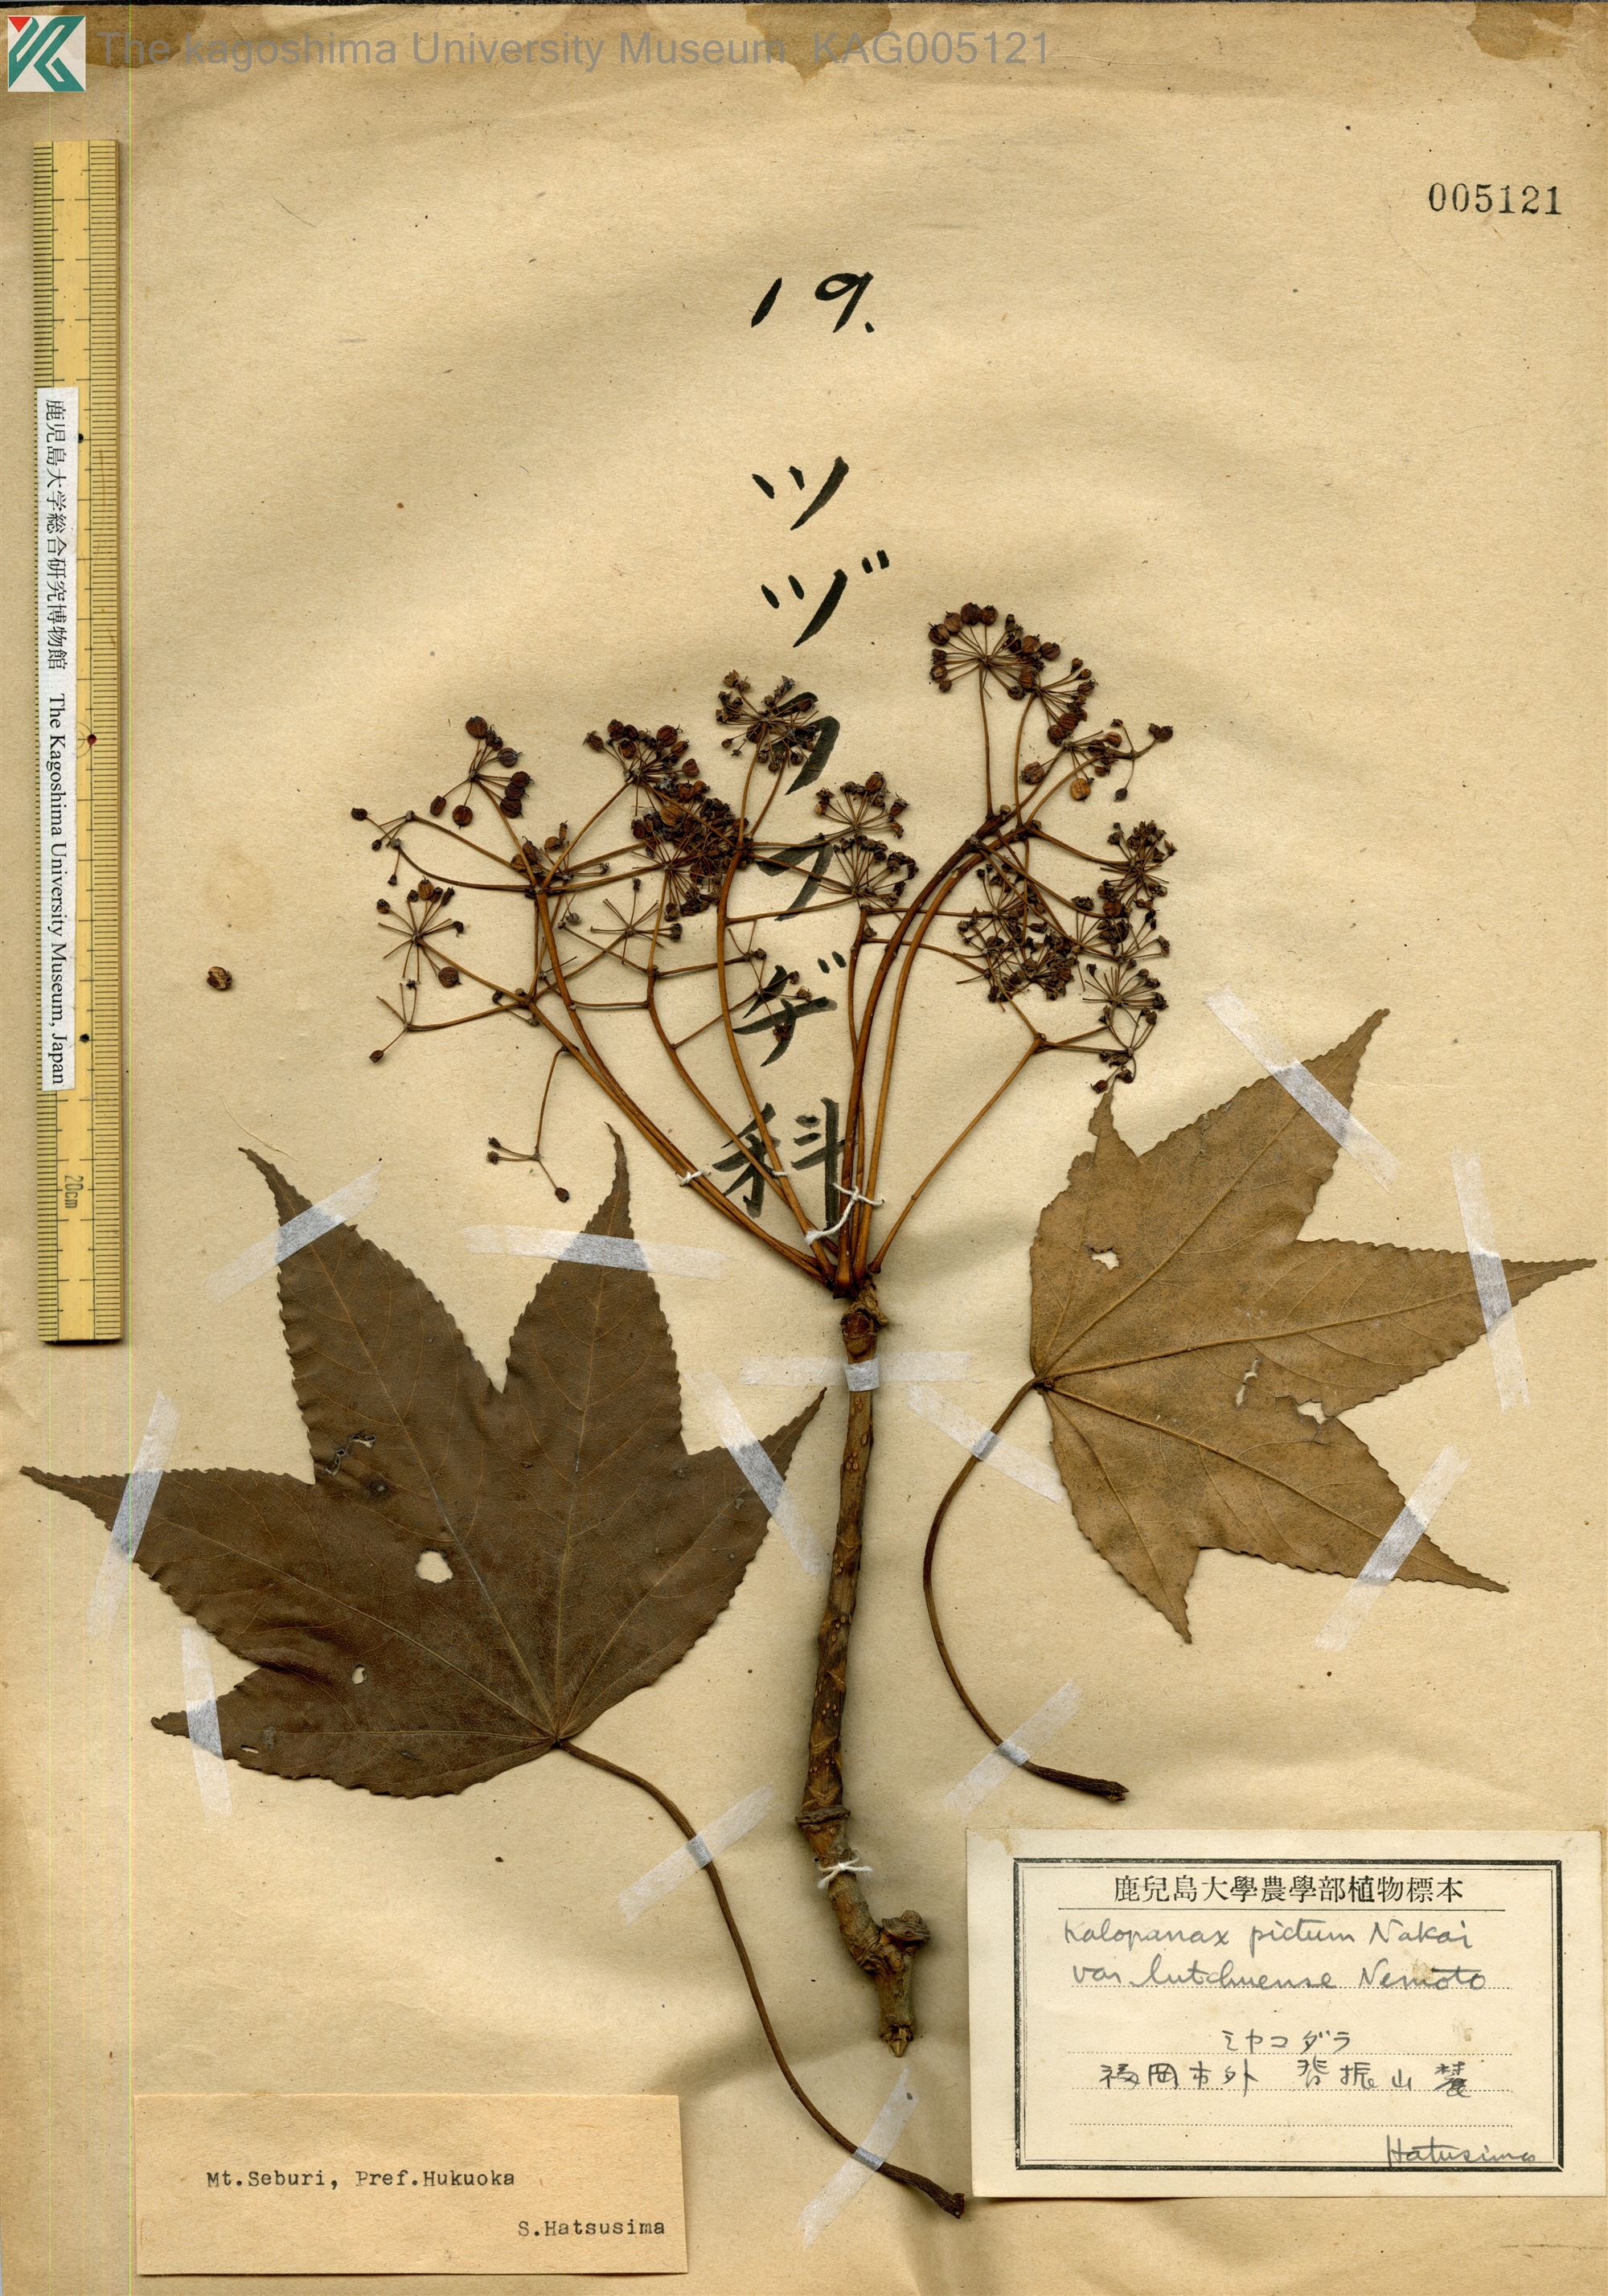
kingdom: Plantae
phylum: Tracheophyta
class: Magnoliopsida
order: Apiales
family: Araliaceae
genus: Kalopanax
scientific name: Kalopanax septemlobus
